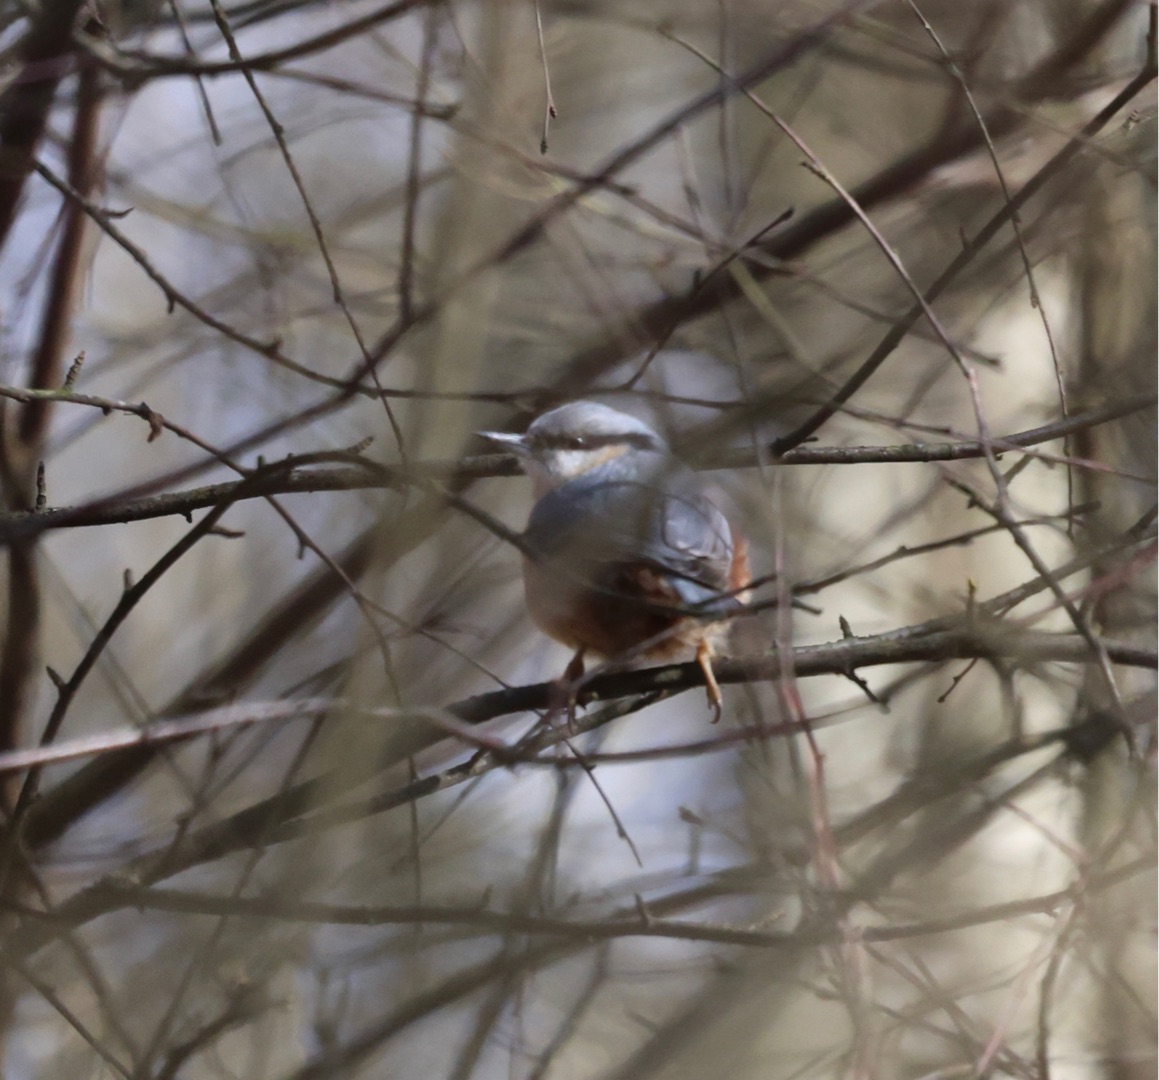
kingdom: Animalia
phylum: Chordata
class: Aves
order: Passeriformes
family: Sittidae
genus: Sitta
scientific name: Sitta europaea
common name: Spætmejse
